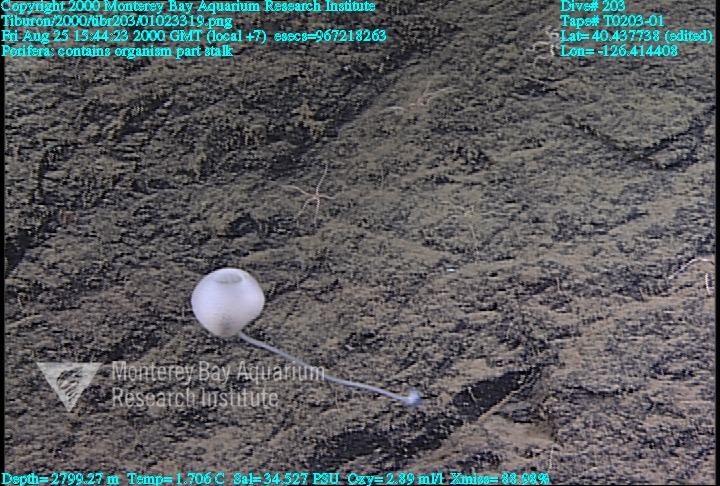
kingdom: Animalia
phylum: Porifera
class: Hexactinellida
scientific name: Hexactinellida
